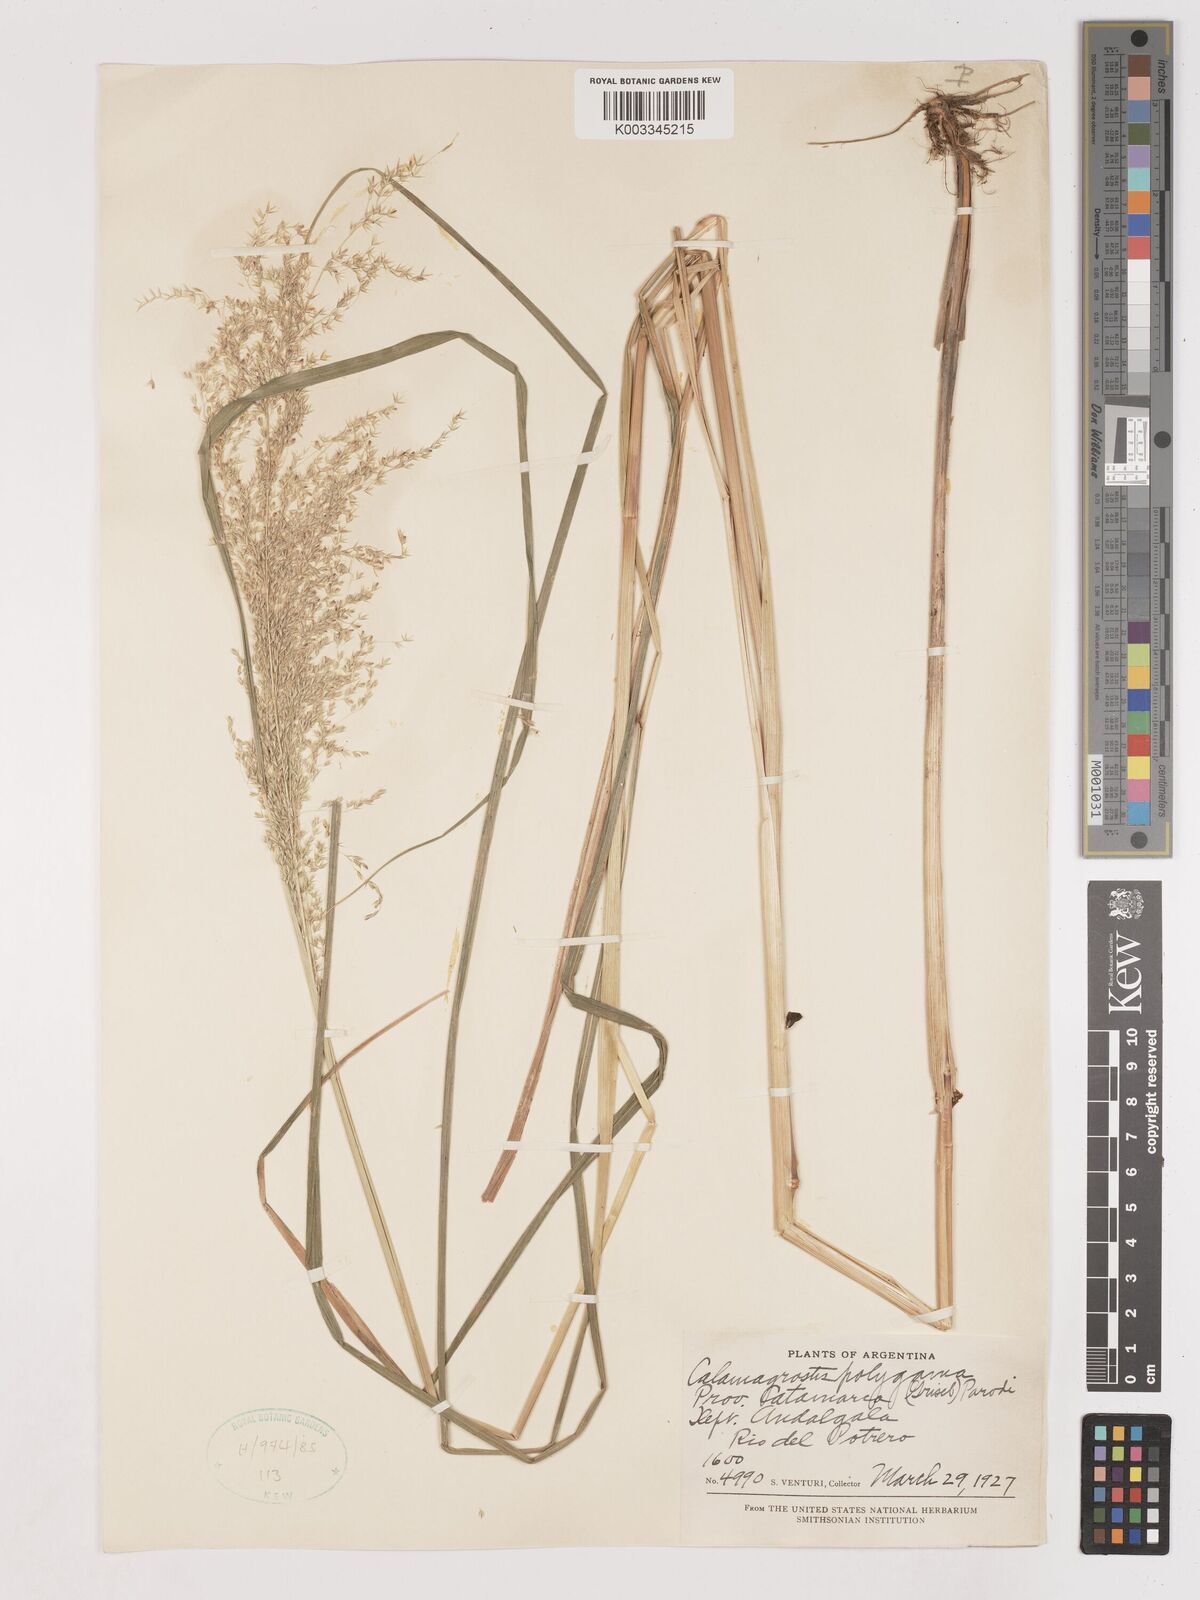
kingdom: Plantae
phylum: Tracheophyta
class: Liliopsida
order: Poales
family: Poaceae
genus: Cinnagrostis
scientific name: Cinnagrostis polygama
